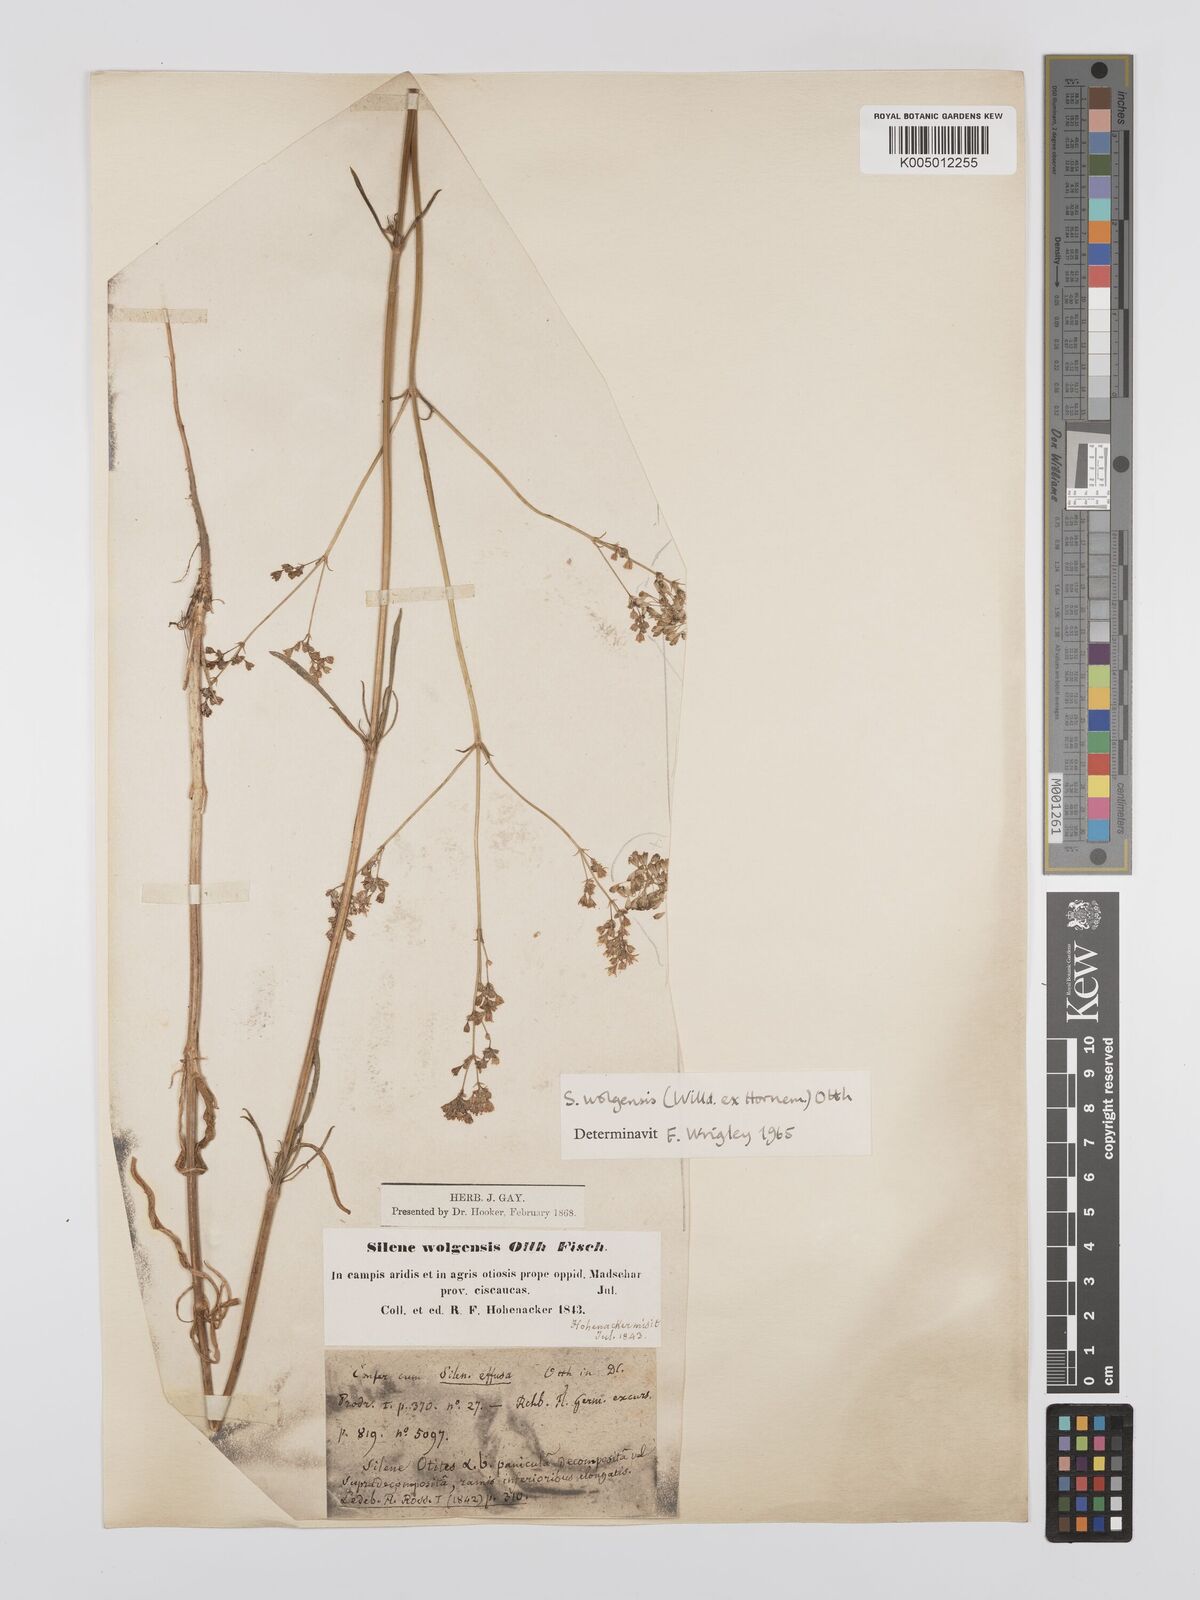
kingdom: Plantae
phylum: Tracheophyta
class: Magnoliopsida
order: Caryophyllales
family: Caryophyllaceae
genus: Silene
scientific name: Silene wolgensis
